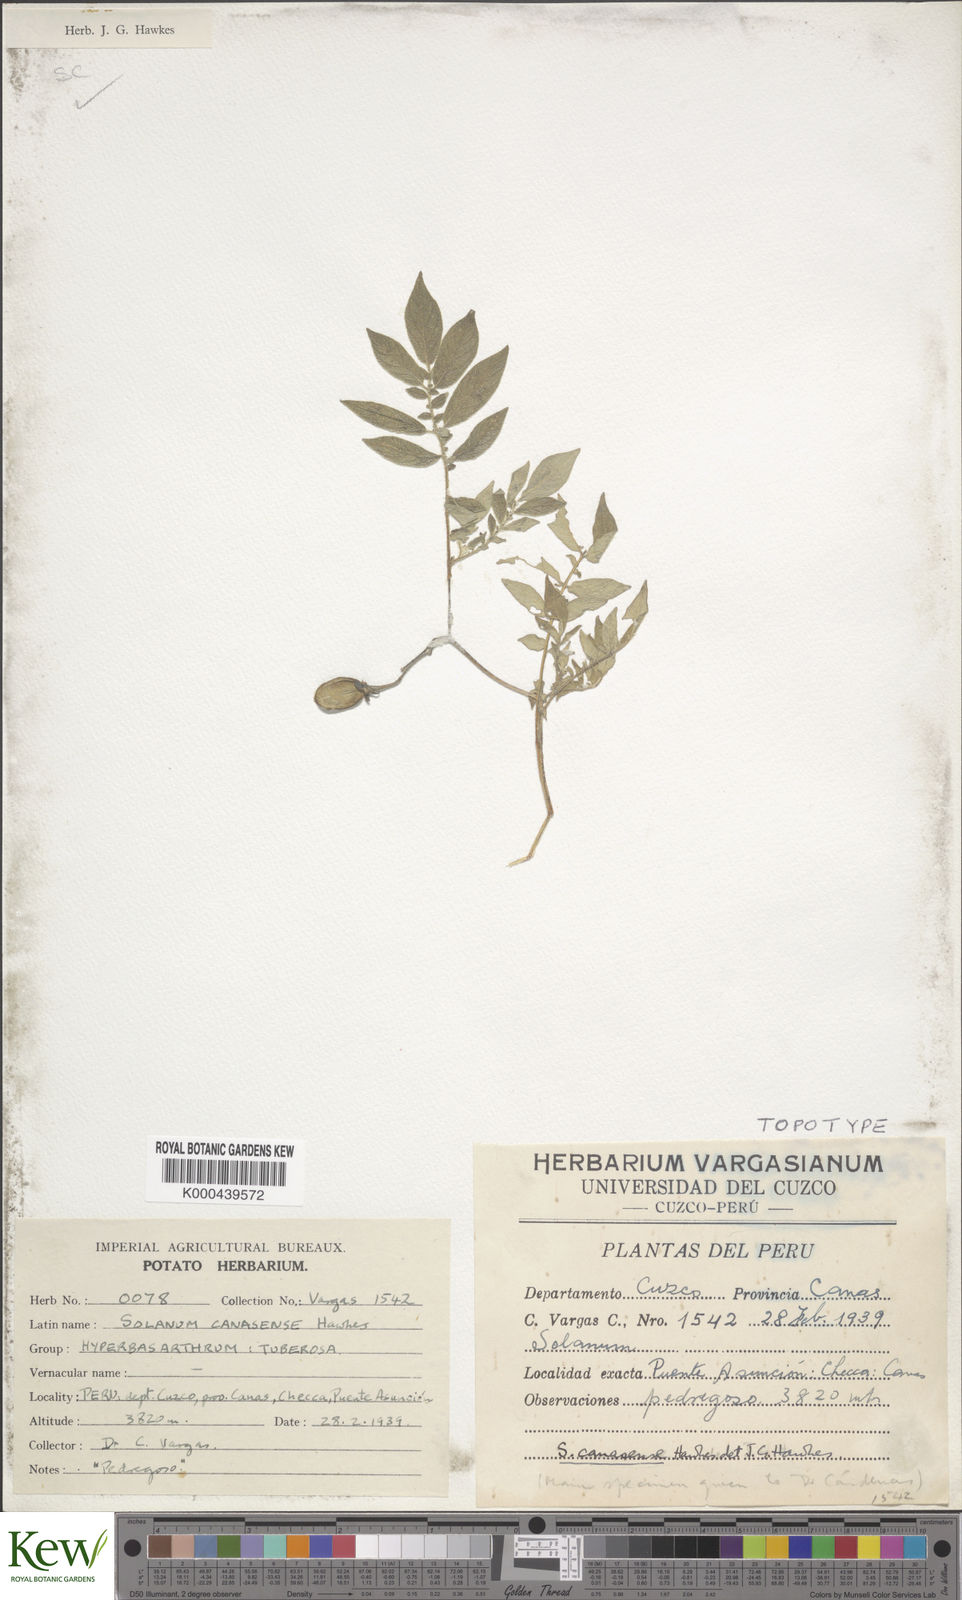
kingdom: Plantae
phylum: Tracheophyta
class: Magnoliopsida
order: Solanales
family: Solanaceae
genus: Solanum
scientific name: Solanum candolleanum
